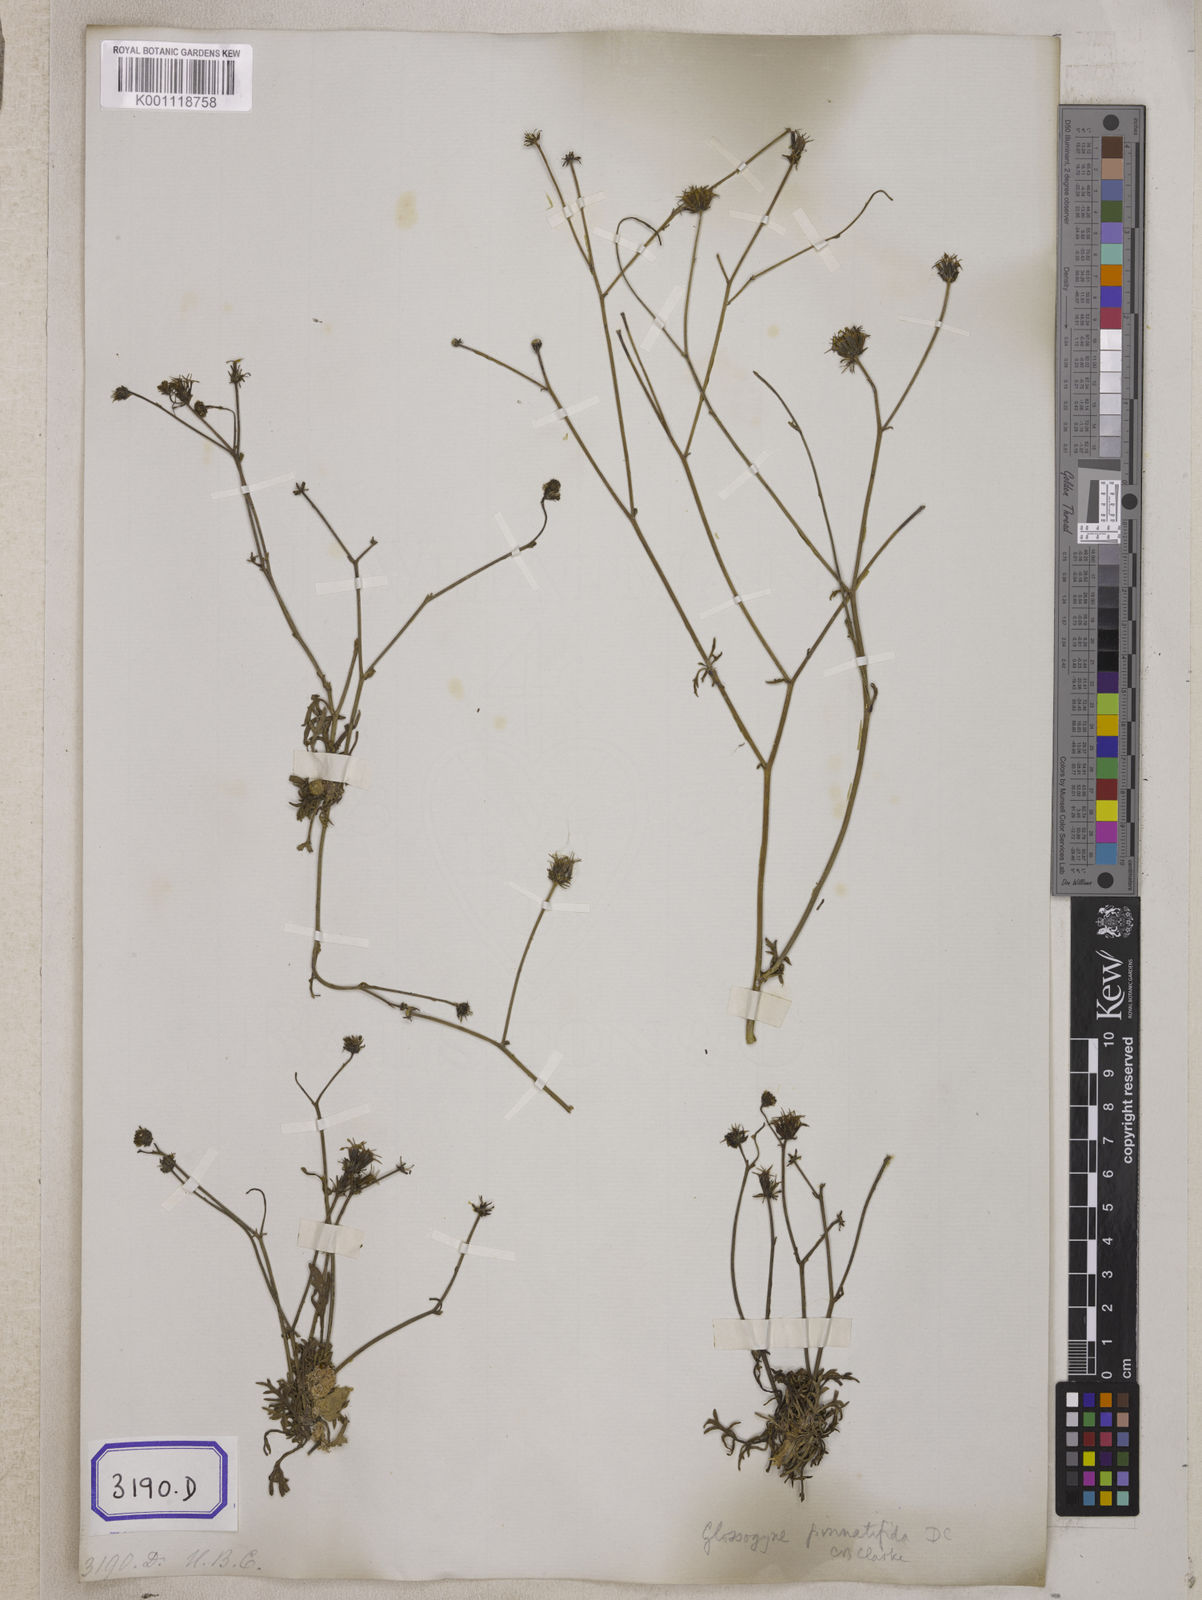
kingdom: Plantae
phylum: Tracheophyta
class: Magnoliopsida
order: Asterales
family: Asteraceae
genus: Bidens
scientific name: Bidens
